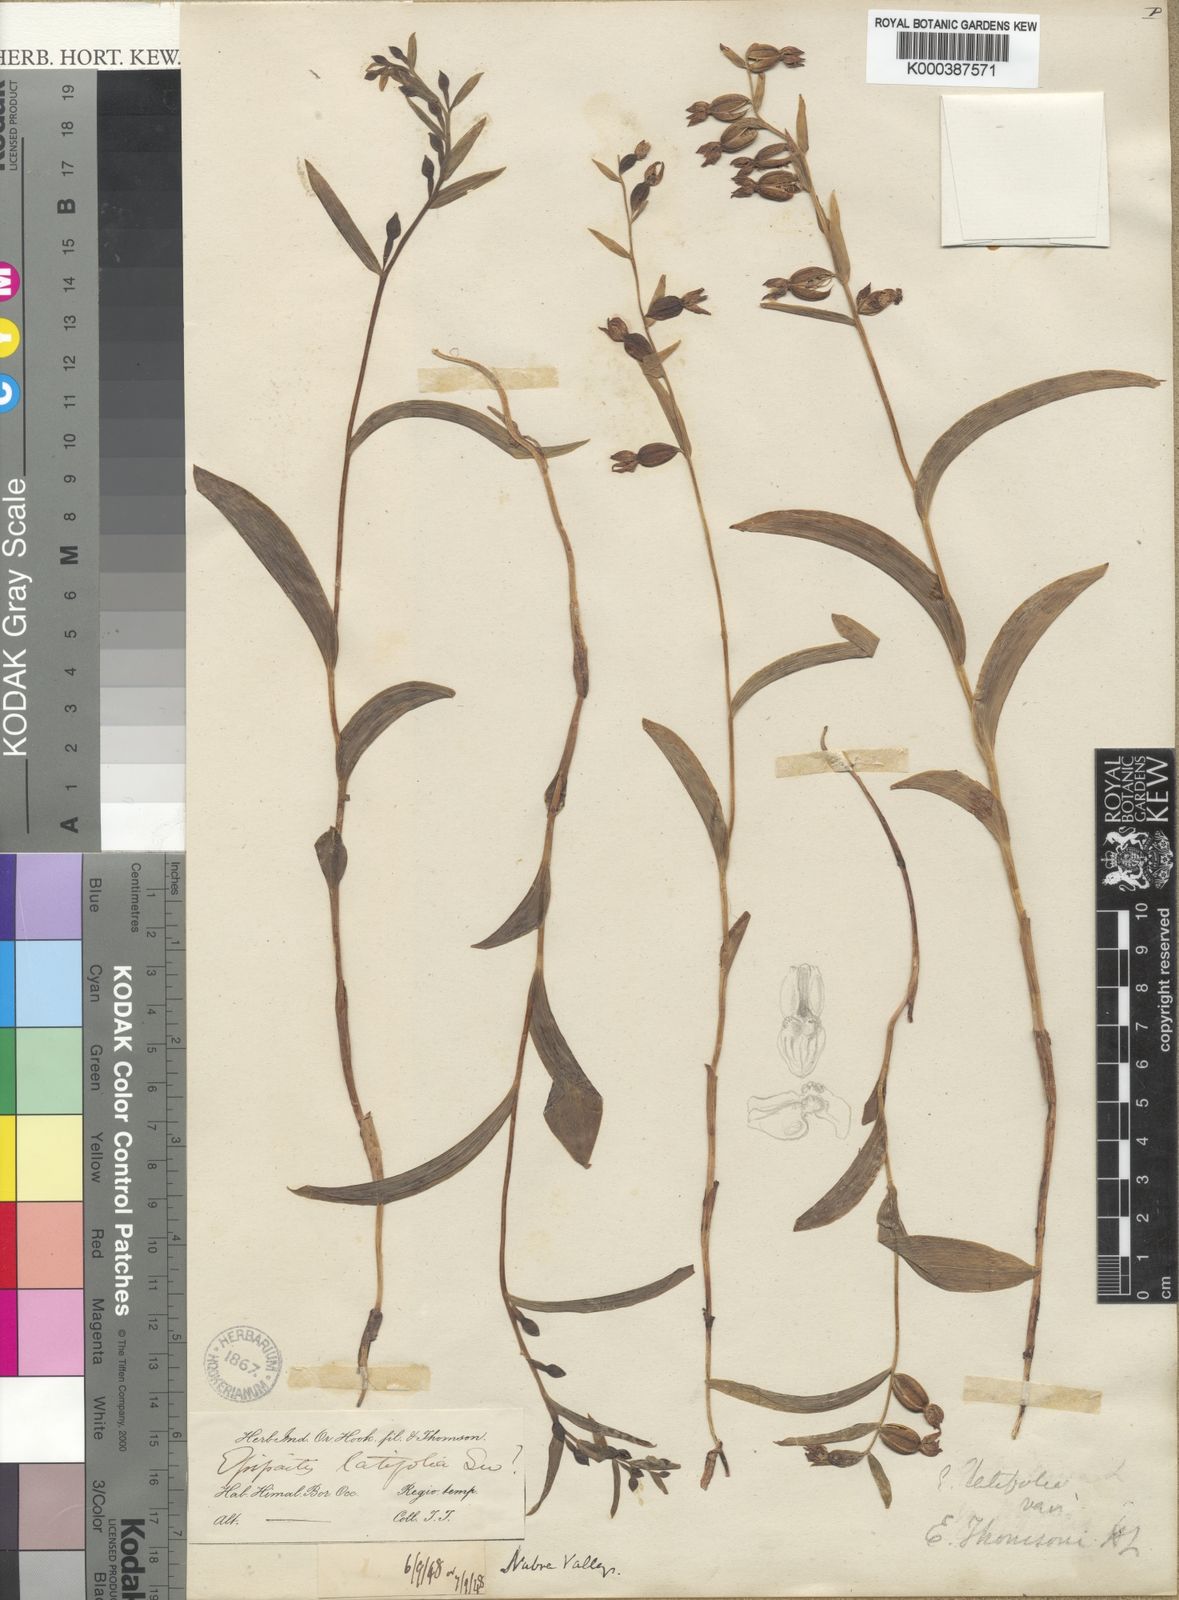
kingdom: Plantae
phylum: Tracheophyta
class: Liliopsida
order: Asparagales
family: Orchidaceae
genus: Epipactis
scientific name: Epipactis helleborine
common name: Broad-leaved helleborine
